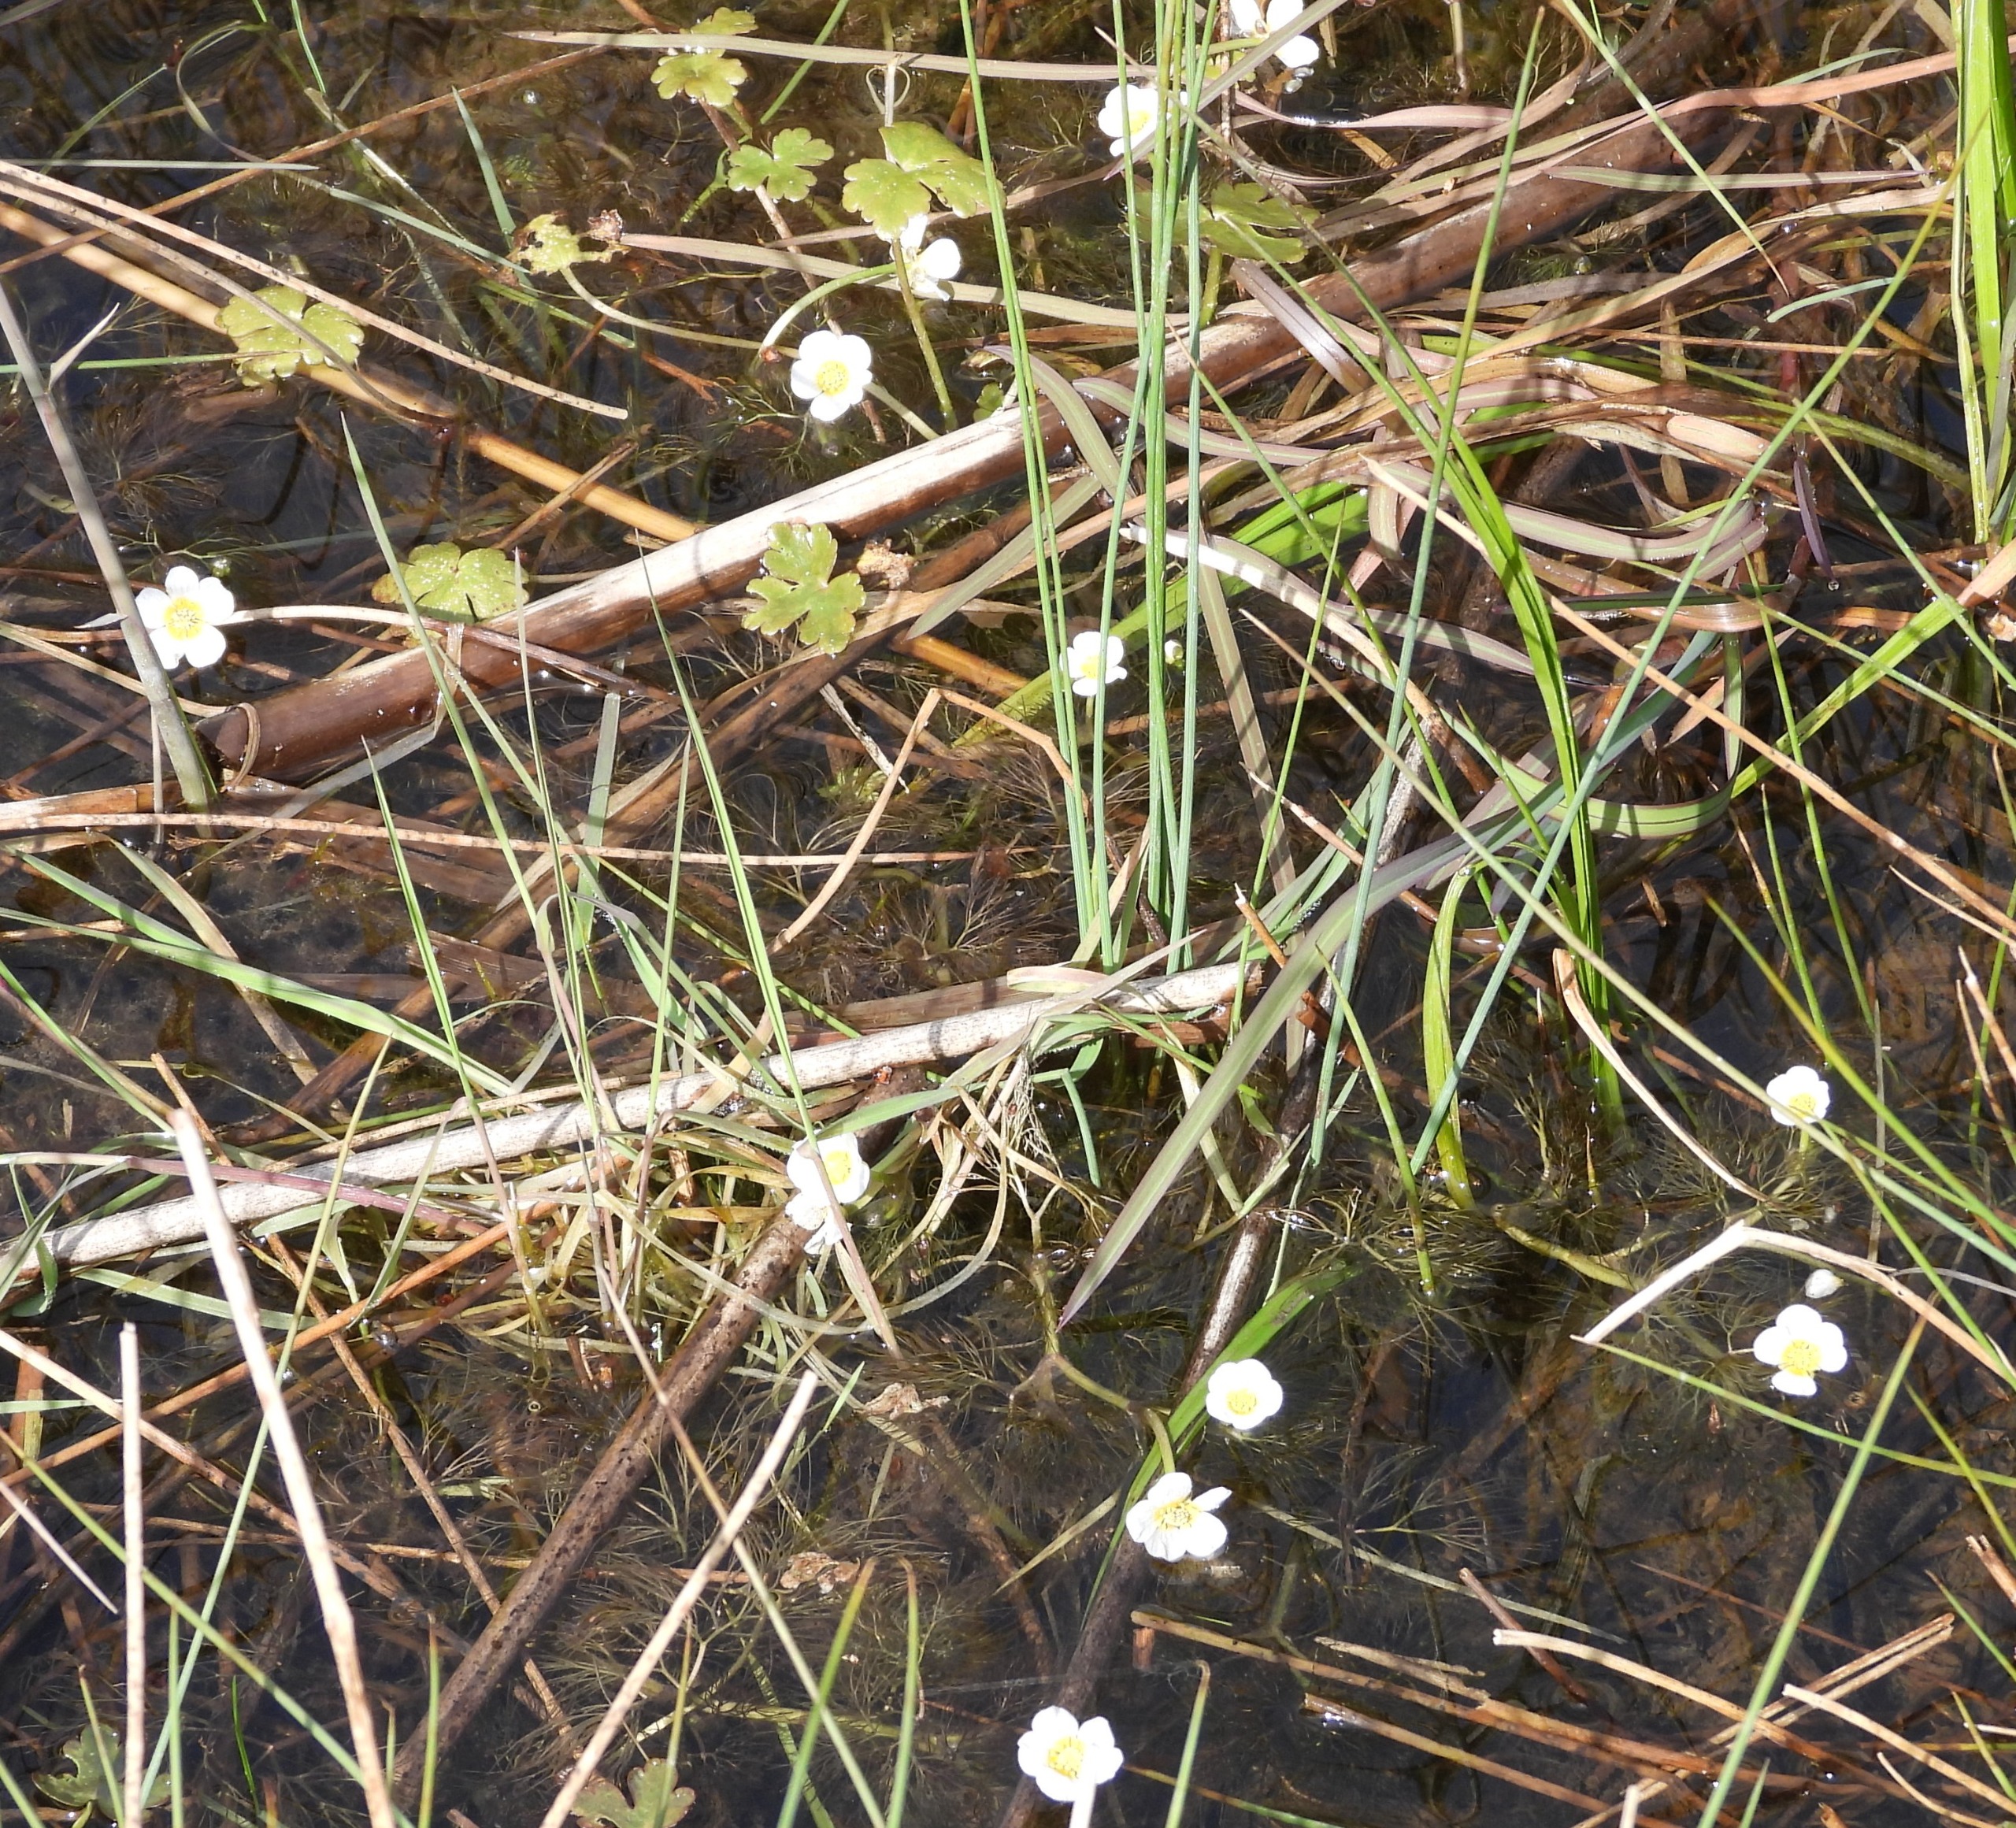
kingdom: Plantae
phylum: Tracheophyta
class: Magnoliopsida
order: Ranunculales
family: Ranunculaceae
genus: Ranunculus
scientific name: Ranunculus peltatus
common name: Storblomstret vandranunkel
